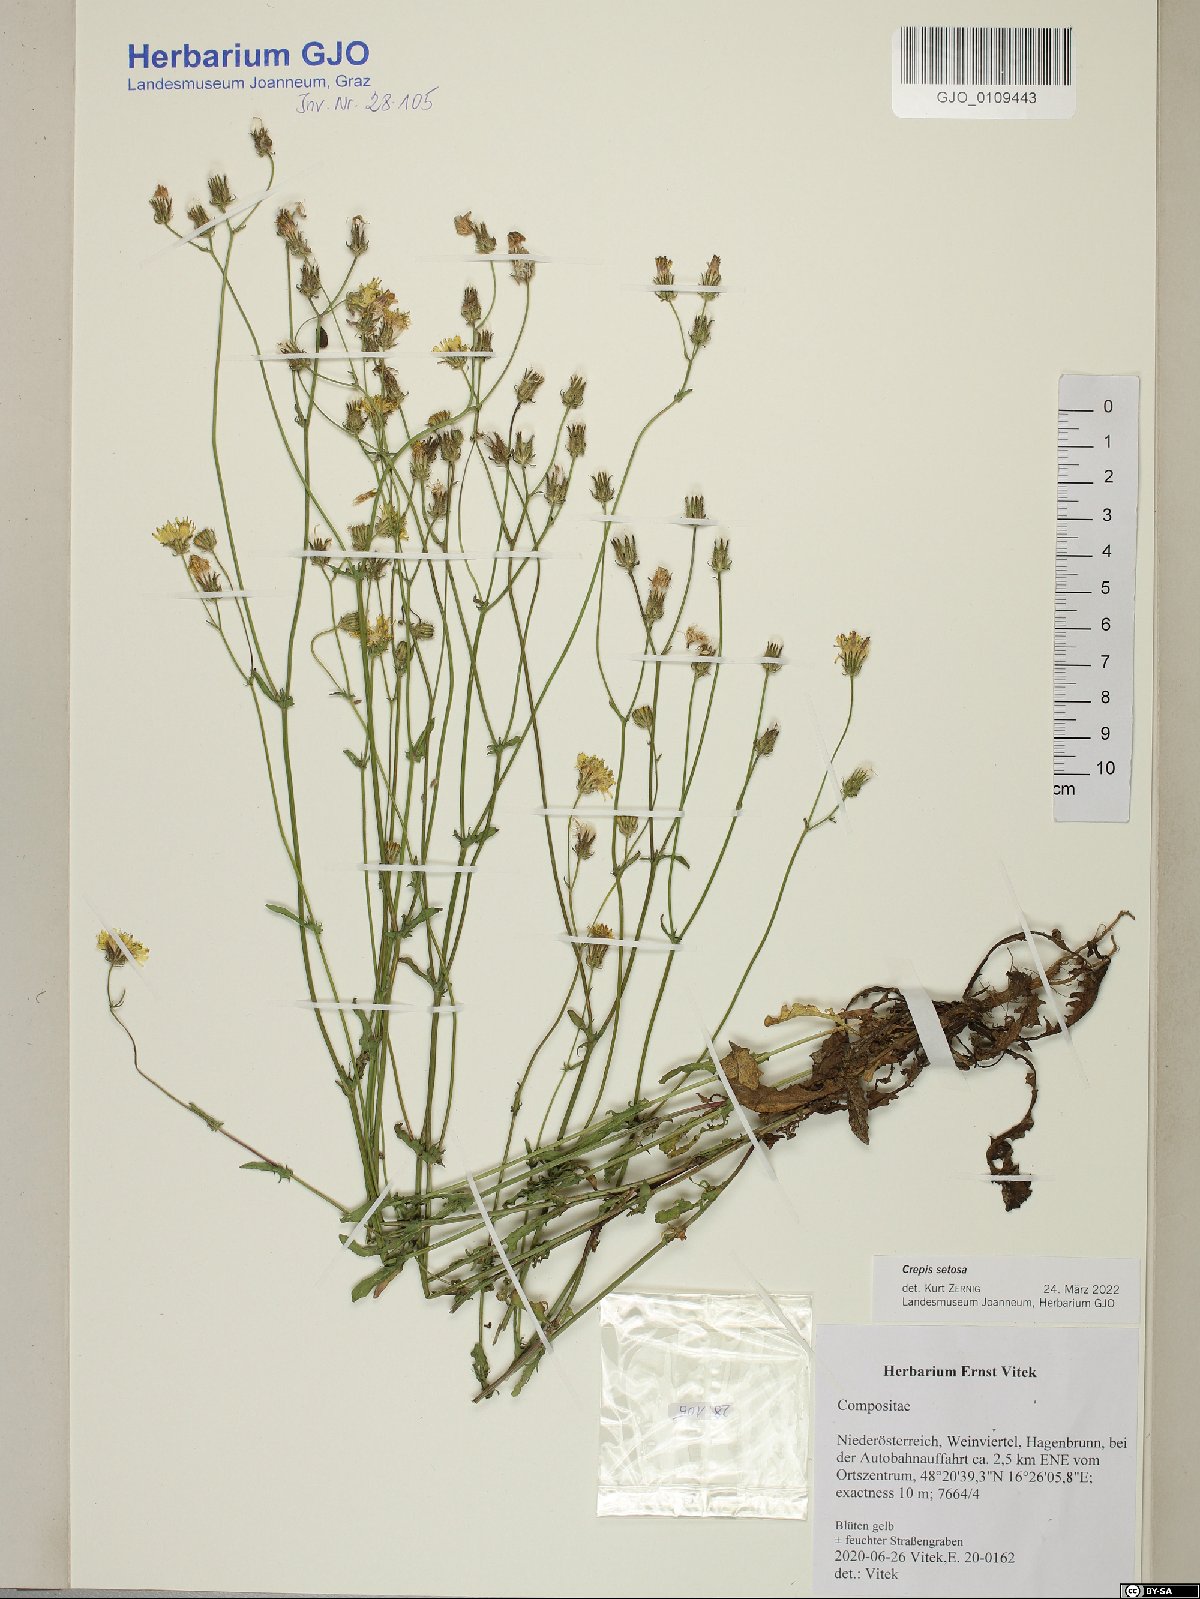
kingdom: Plantae
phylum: Tracheophyta
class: Magnoliopsida
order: Asterales
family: Asteraceae
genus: Crepis
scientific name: Crepis setosa
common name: Bristly hawk's-beard
